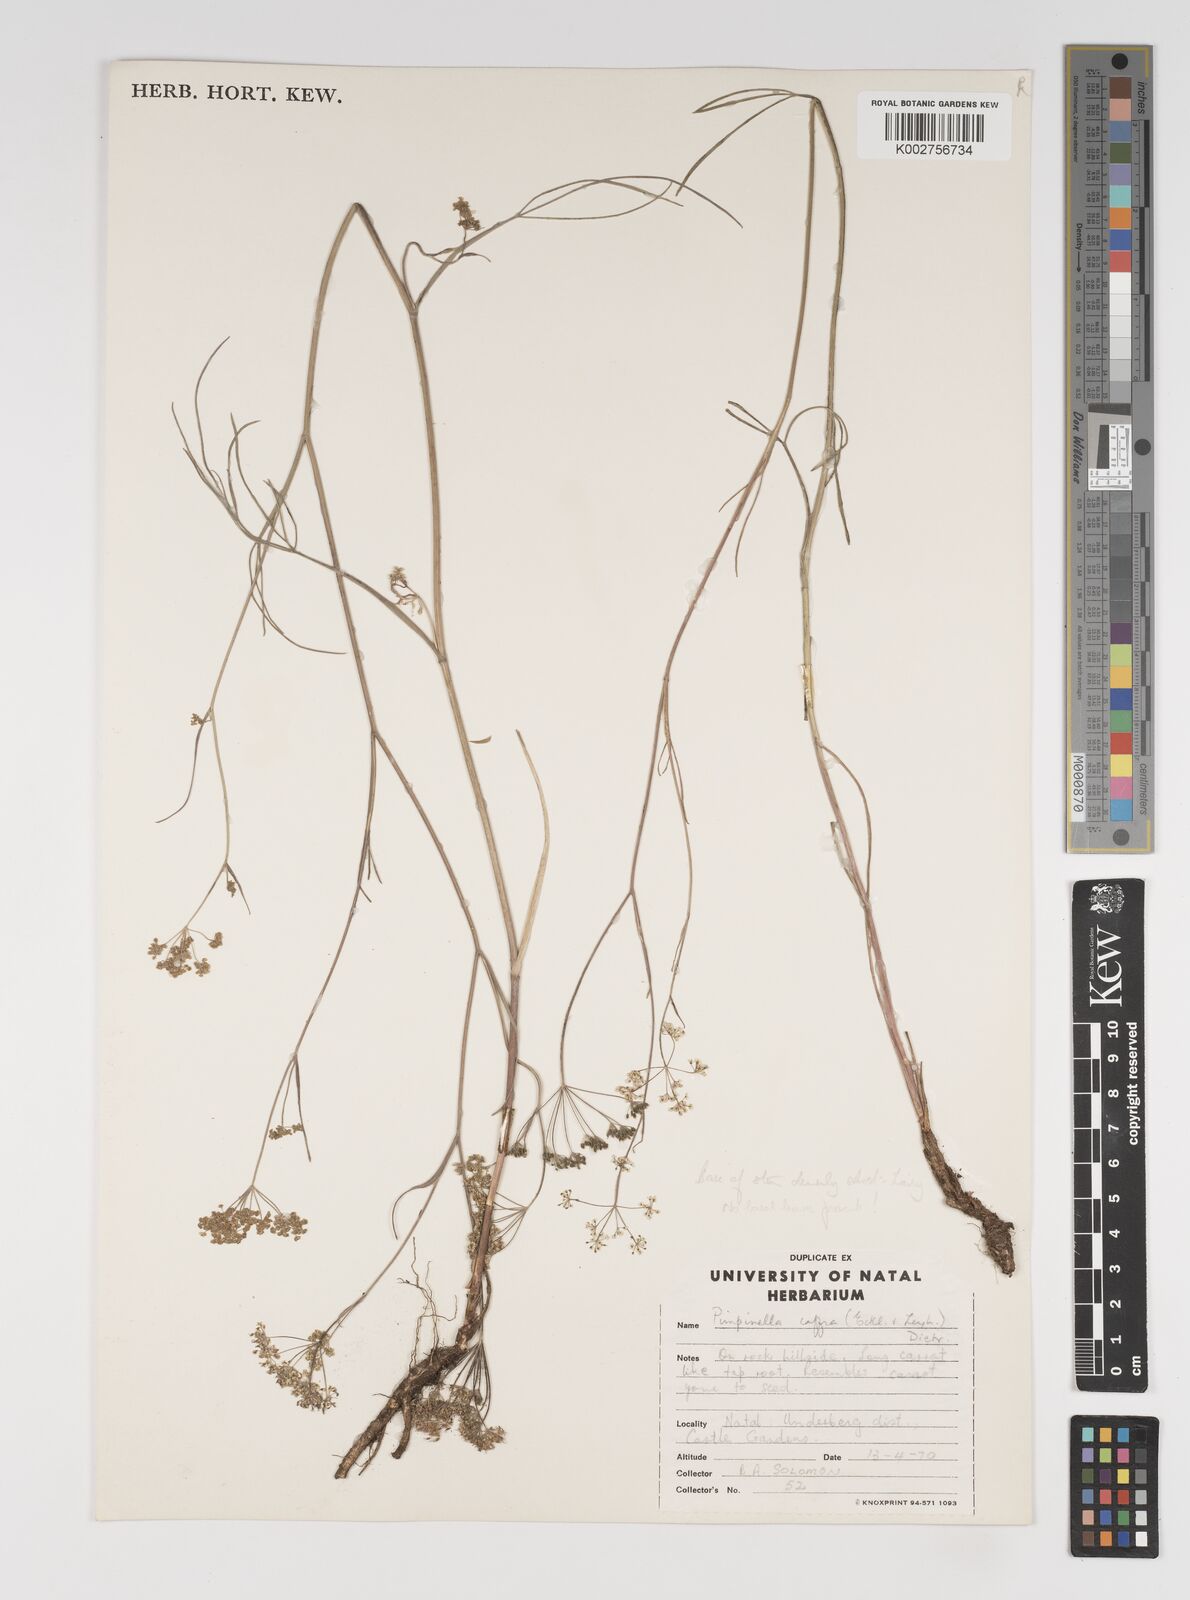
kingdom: Plantae
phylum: Tracheophyta
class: Magnoliopsida
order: Apiales
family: Apiaceae
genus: Pimpinella
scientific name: Pimpinella caffra
